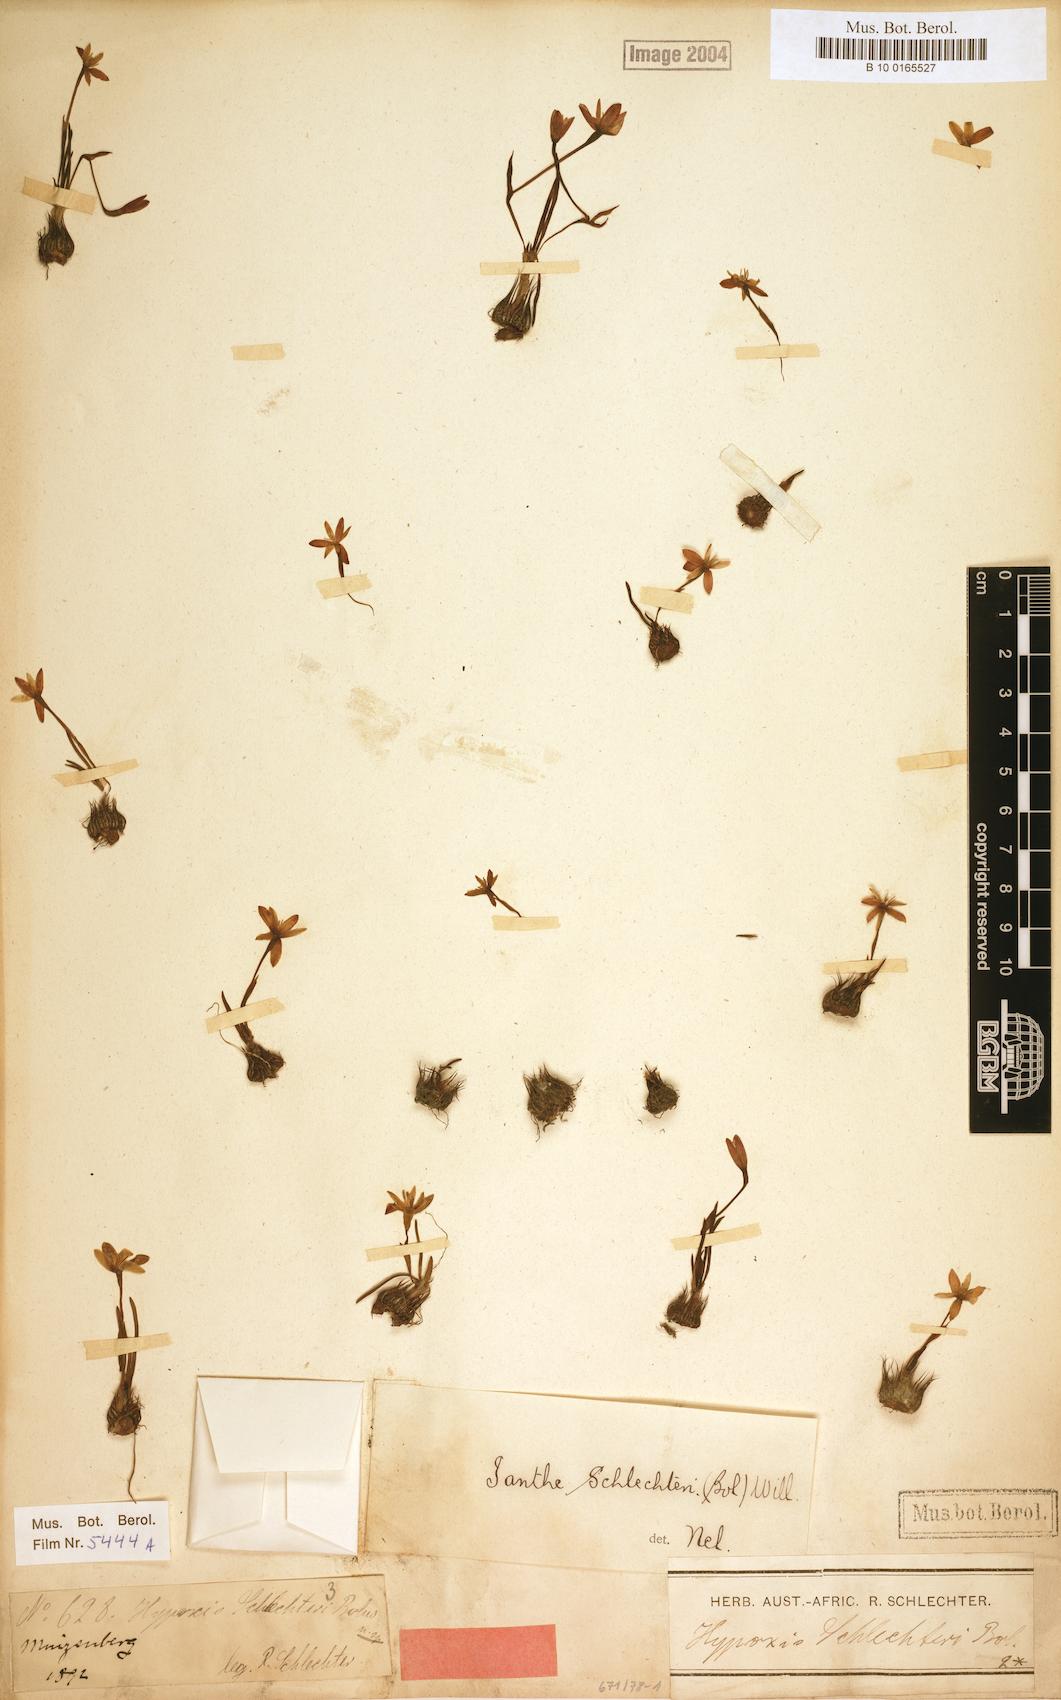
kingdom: Plantae
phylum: Tracheophyta
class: Liliopsida
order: Asparagales
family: Hypoxidaceae
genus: Pauridia
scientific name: Pauridia affinis
